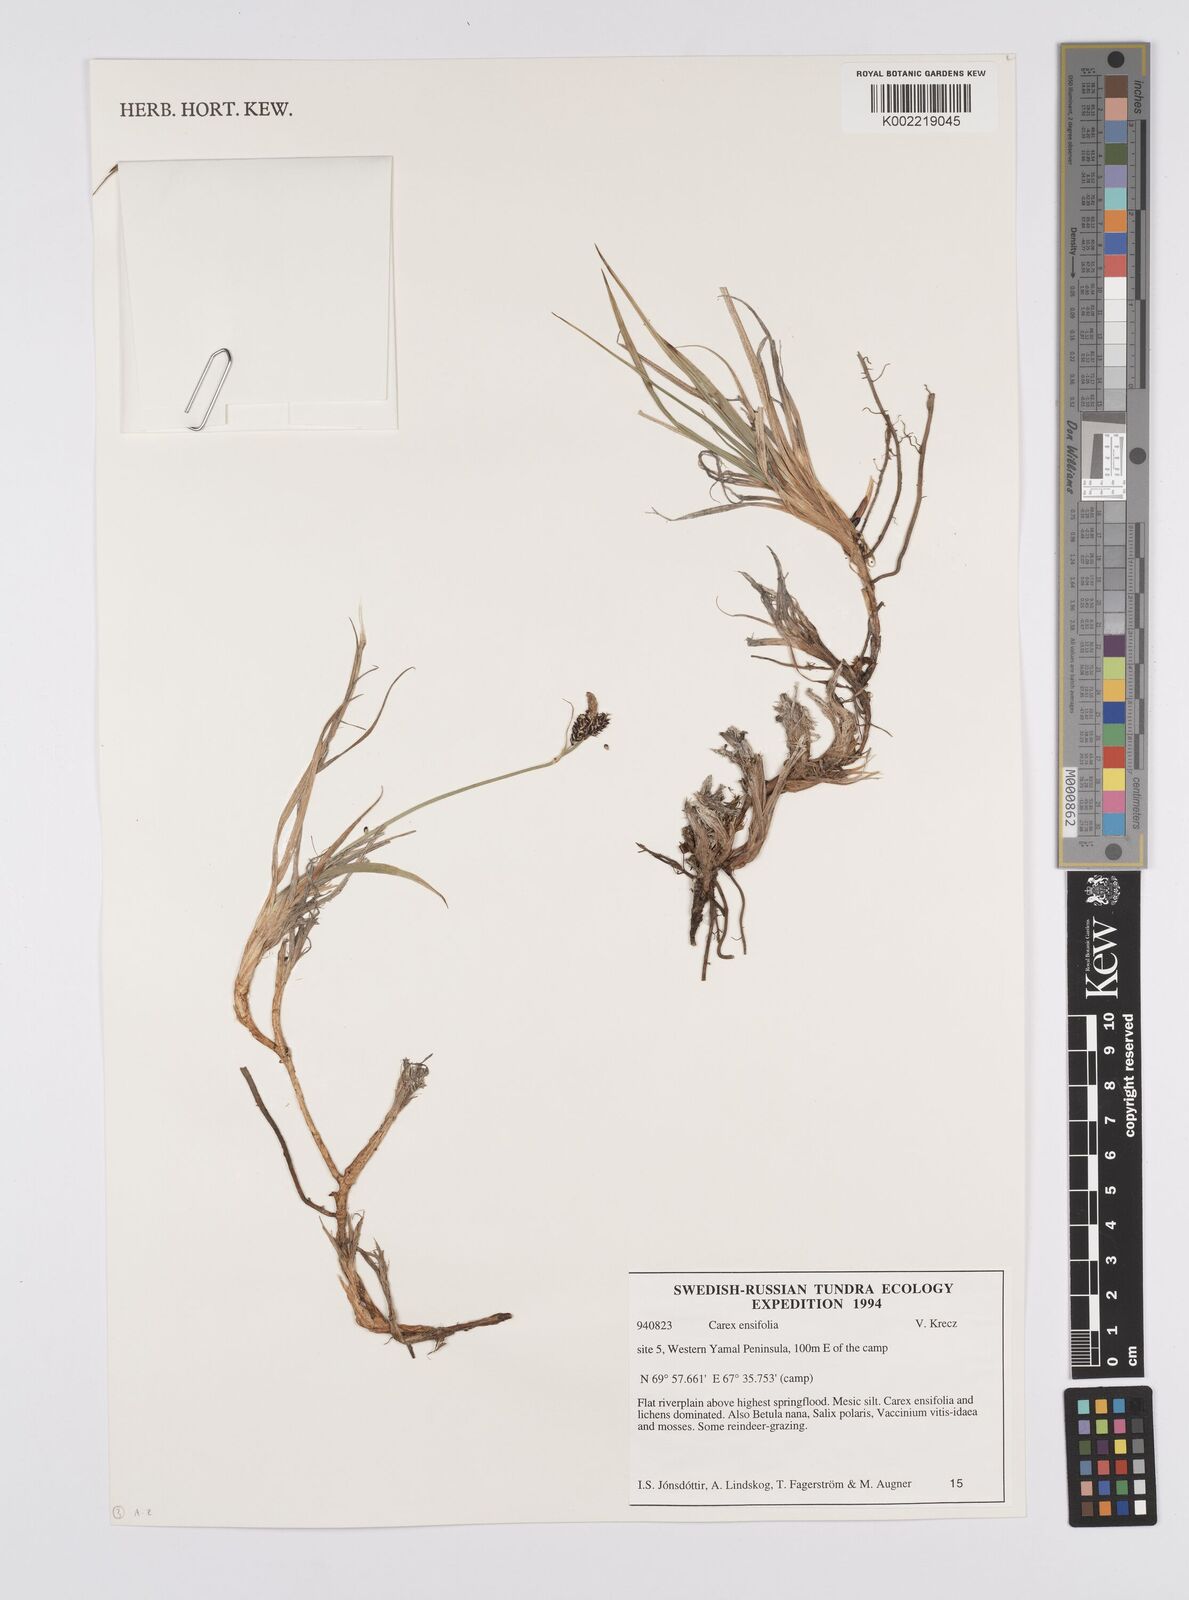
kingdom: Plantae
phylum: Tracheophyta
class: Liliopsida
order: Poales
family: Cyperaceae
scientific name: Cyperaceae
